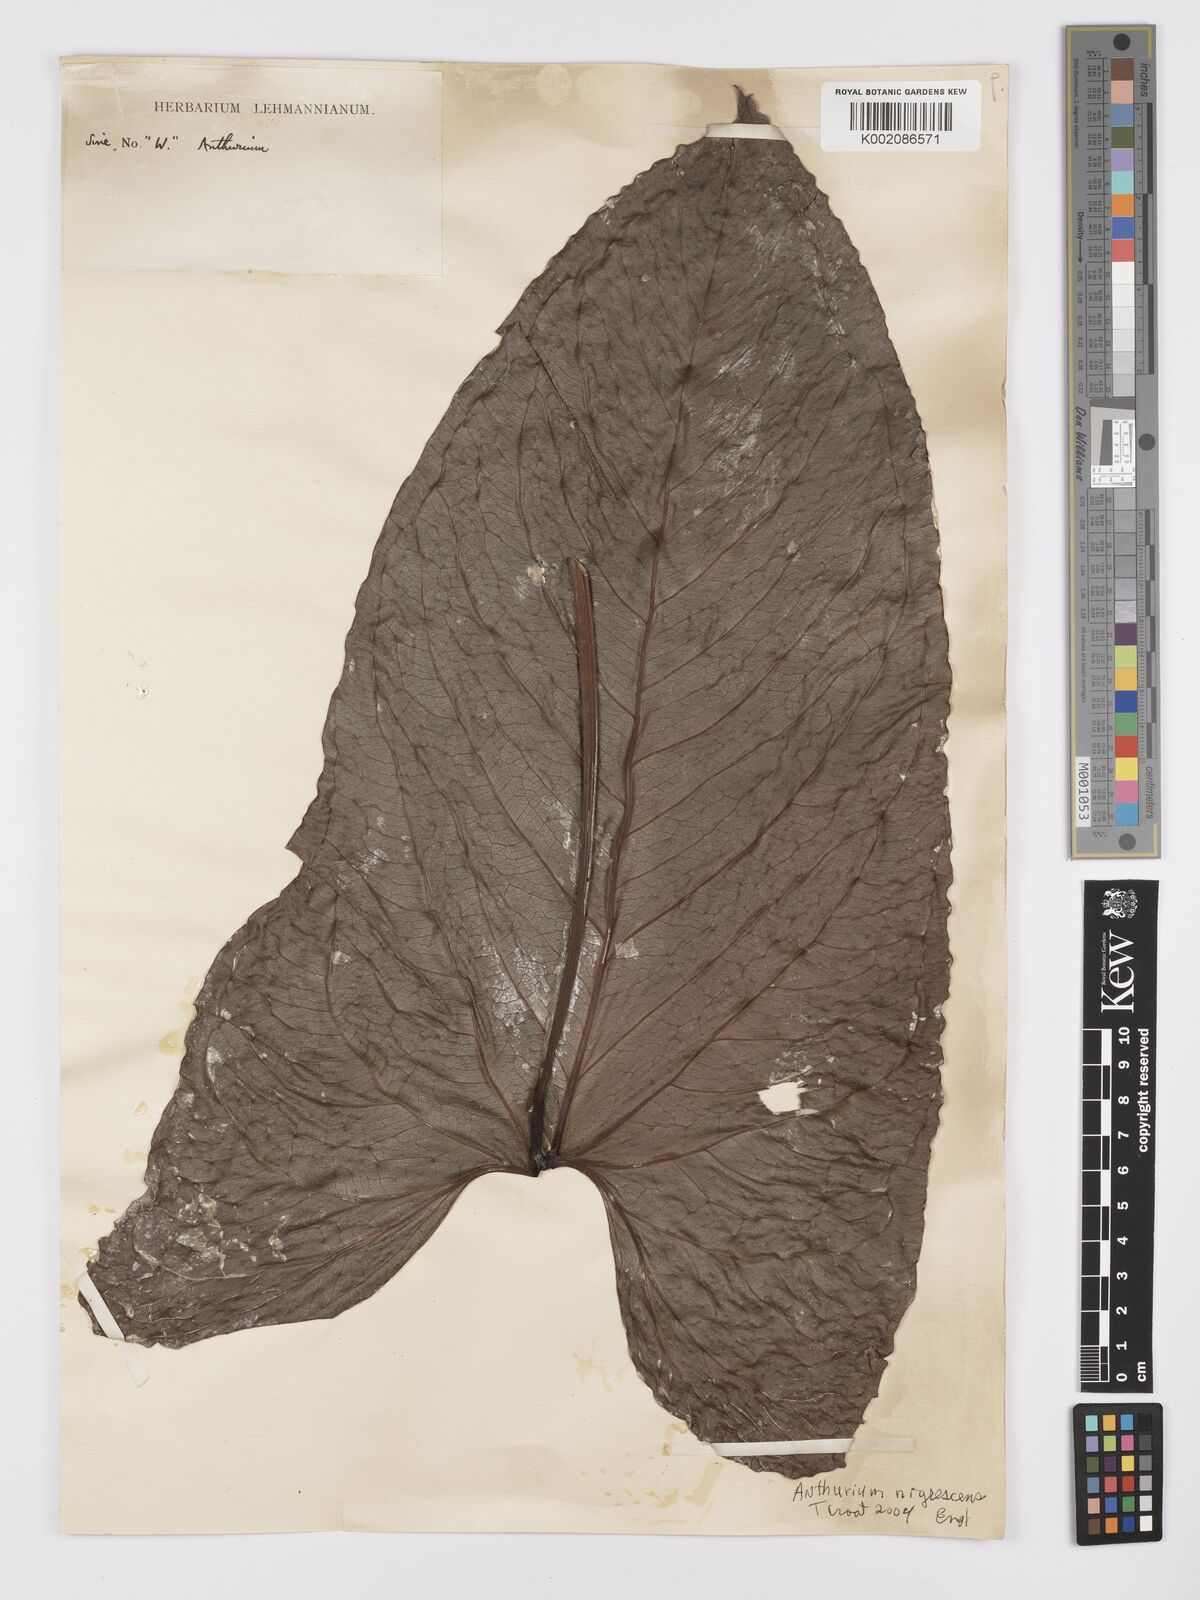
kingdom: Plantae
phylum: Tracheophyta
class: Liliopsida
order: Alismatales
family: Araceae
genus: Anthurium
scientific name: Anthurium nigrescens
